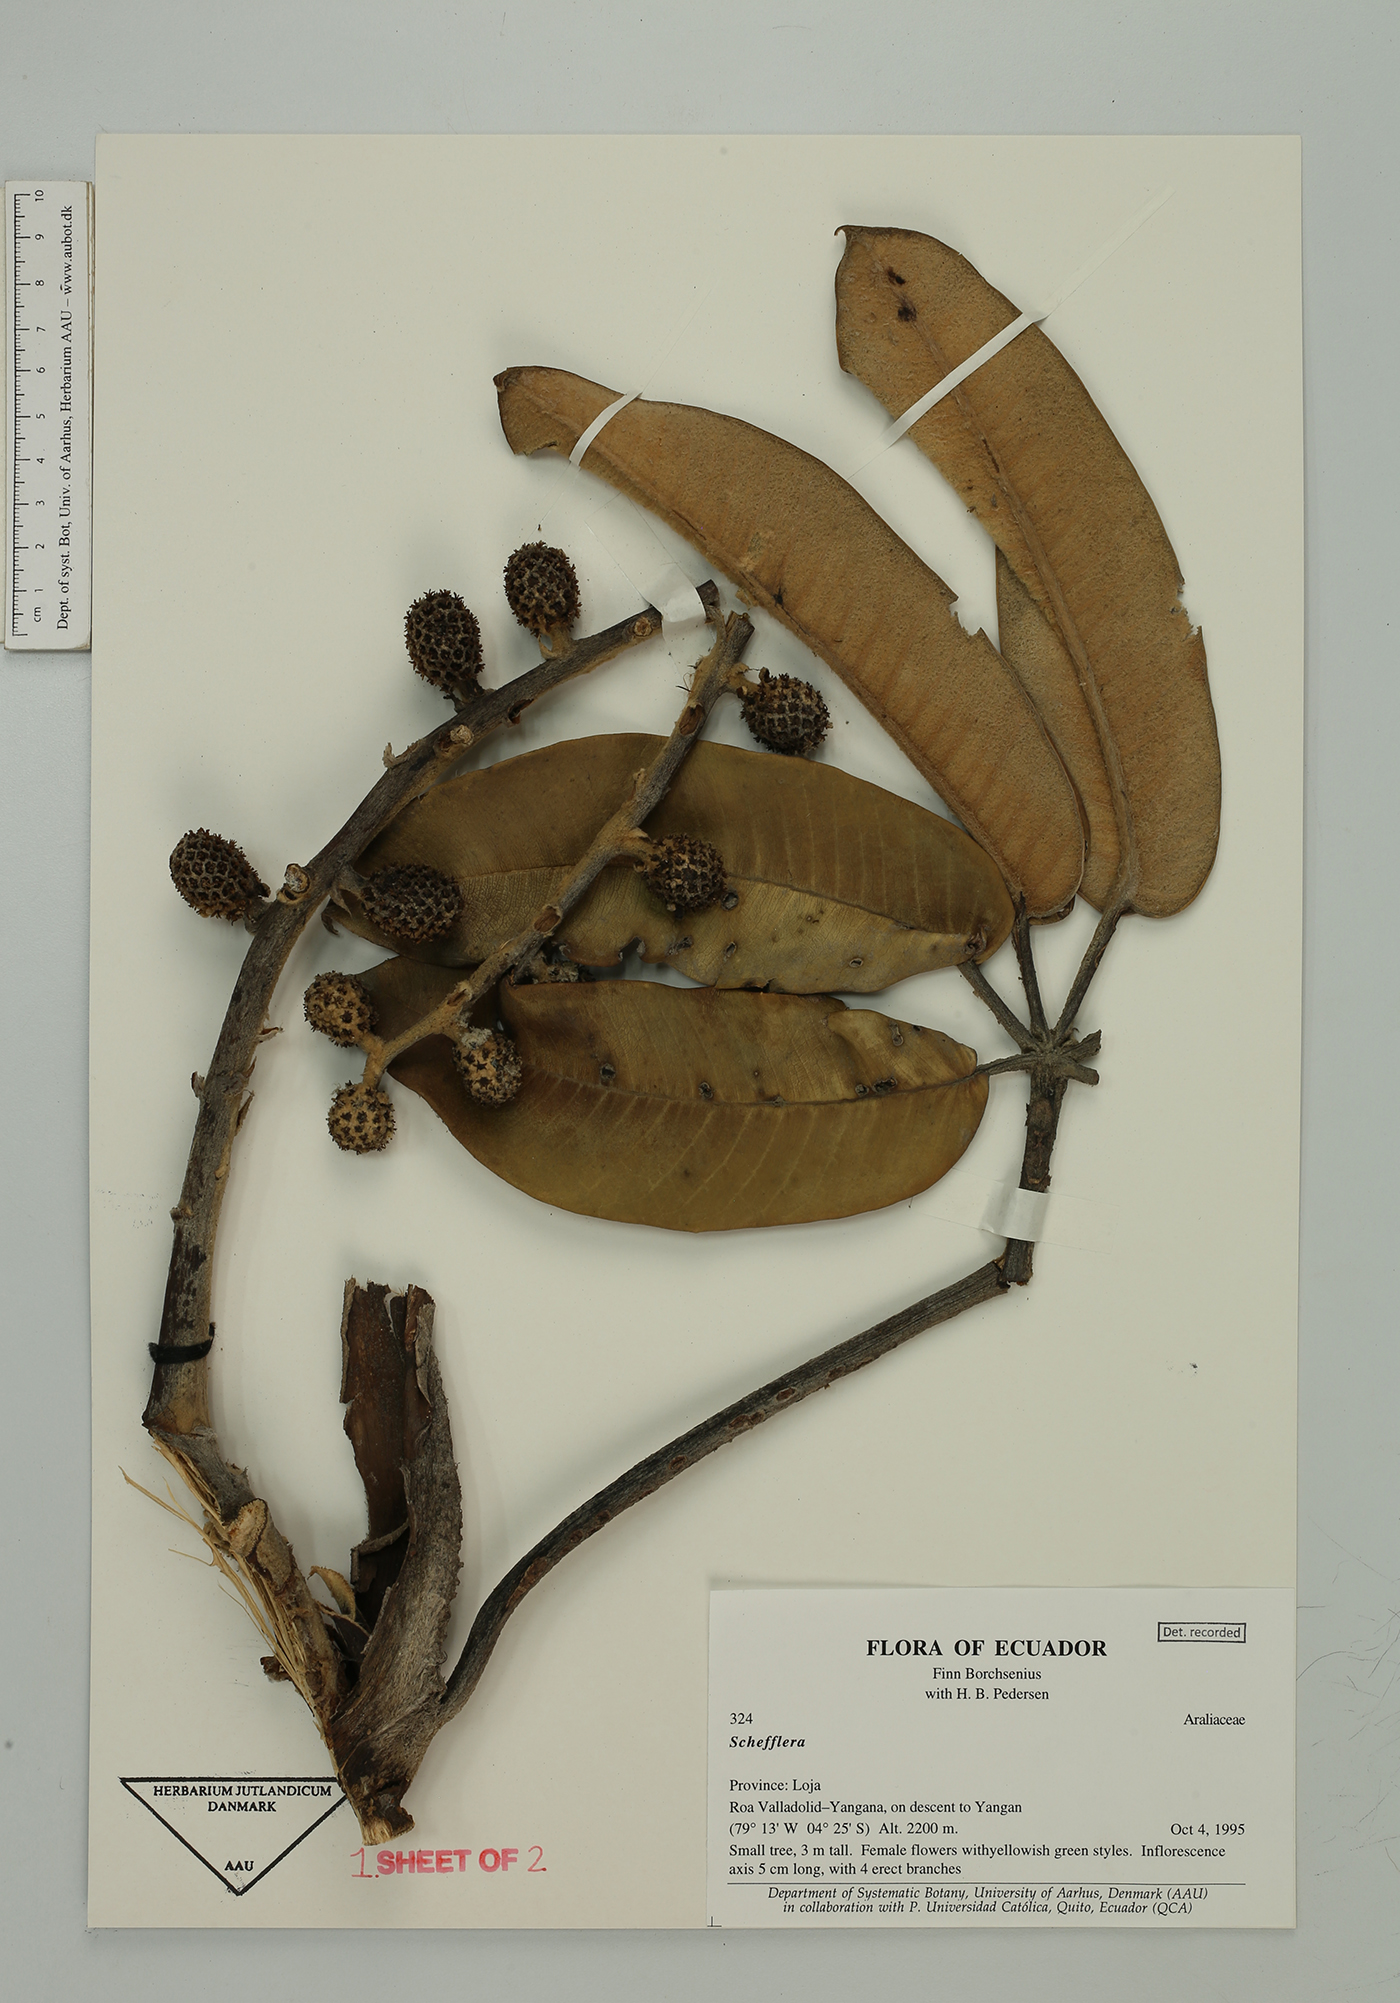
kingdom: Plantae
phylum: Tracheophyta
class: Magnoliopsida
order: Apiales
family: Araliaceae
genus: Sciodaphyllum
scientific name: Sciodaphyllum
